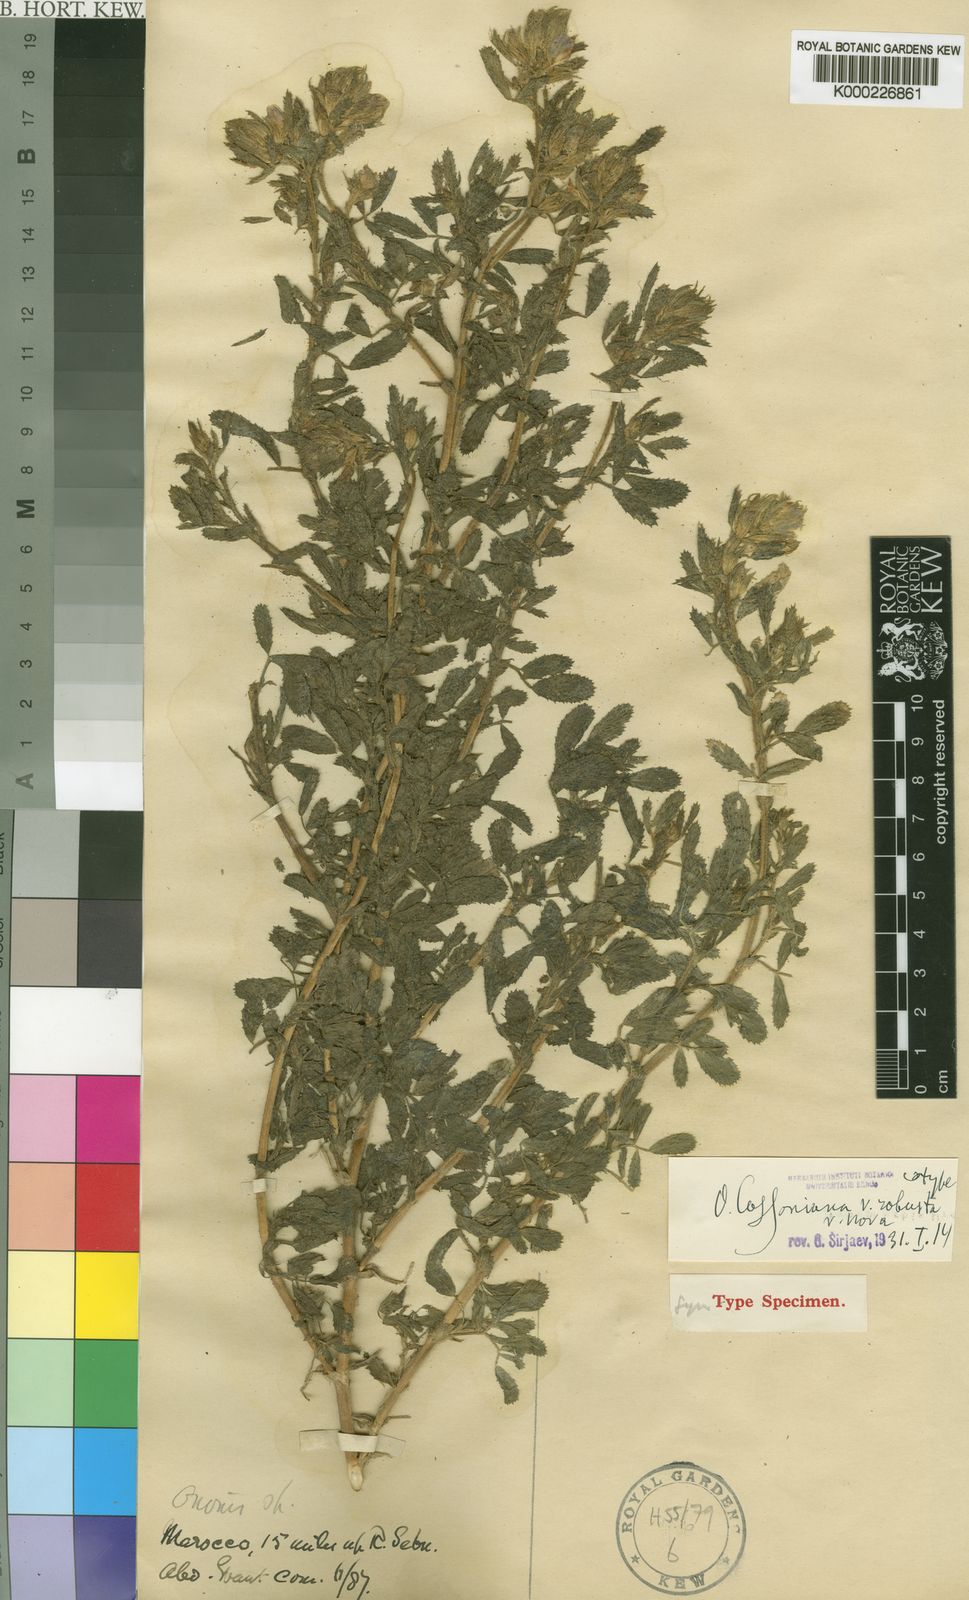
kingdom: Plantae
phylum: Tracheophyta
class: Magnoliopsida
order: Fabales
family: Fabaceae
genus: Ononis
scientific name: Ononis cossoniana
